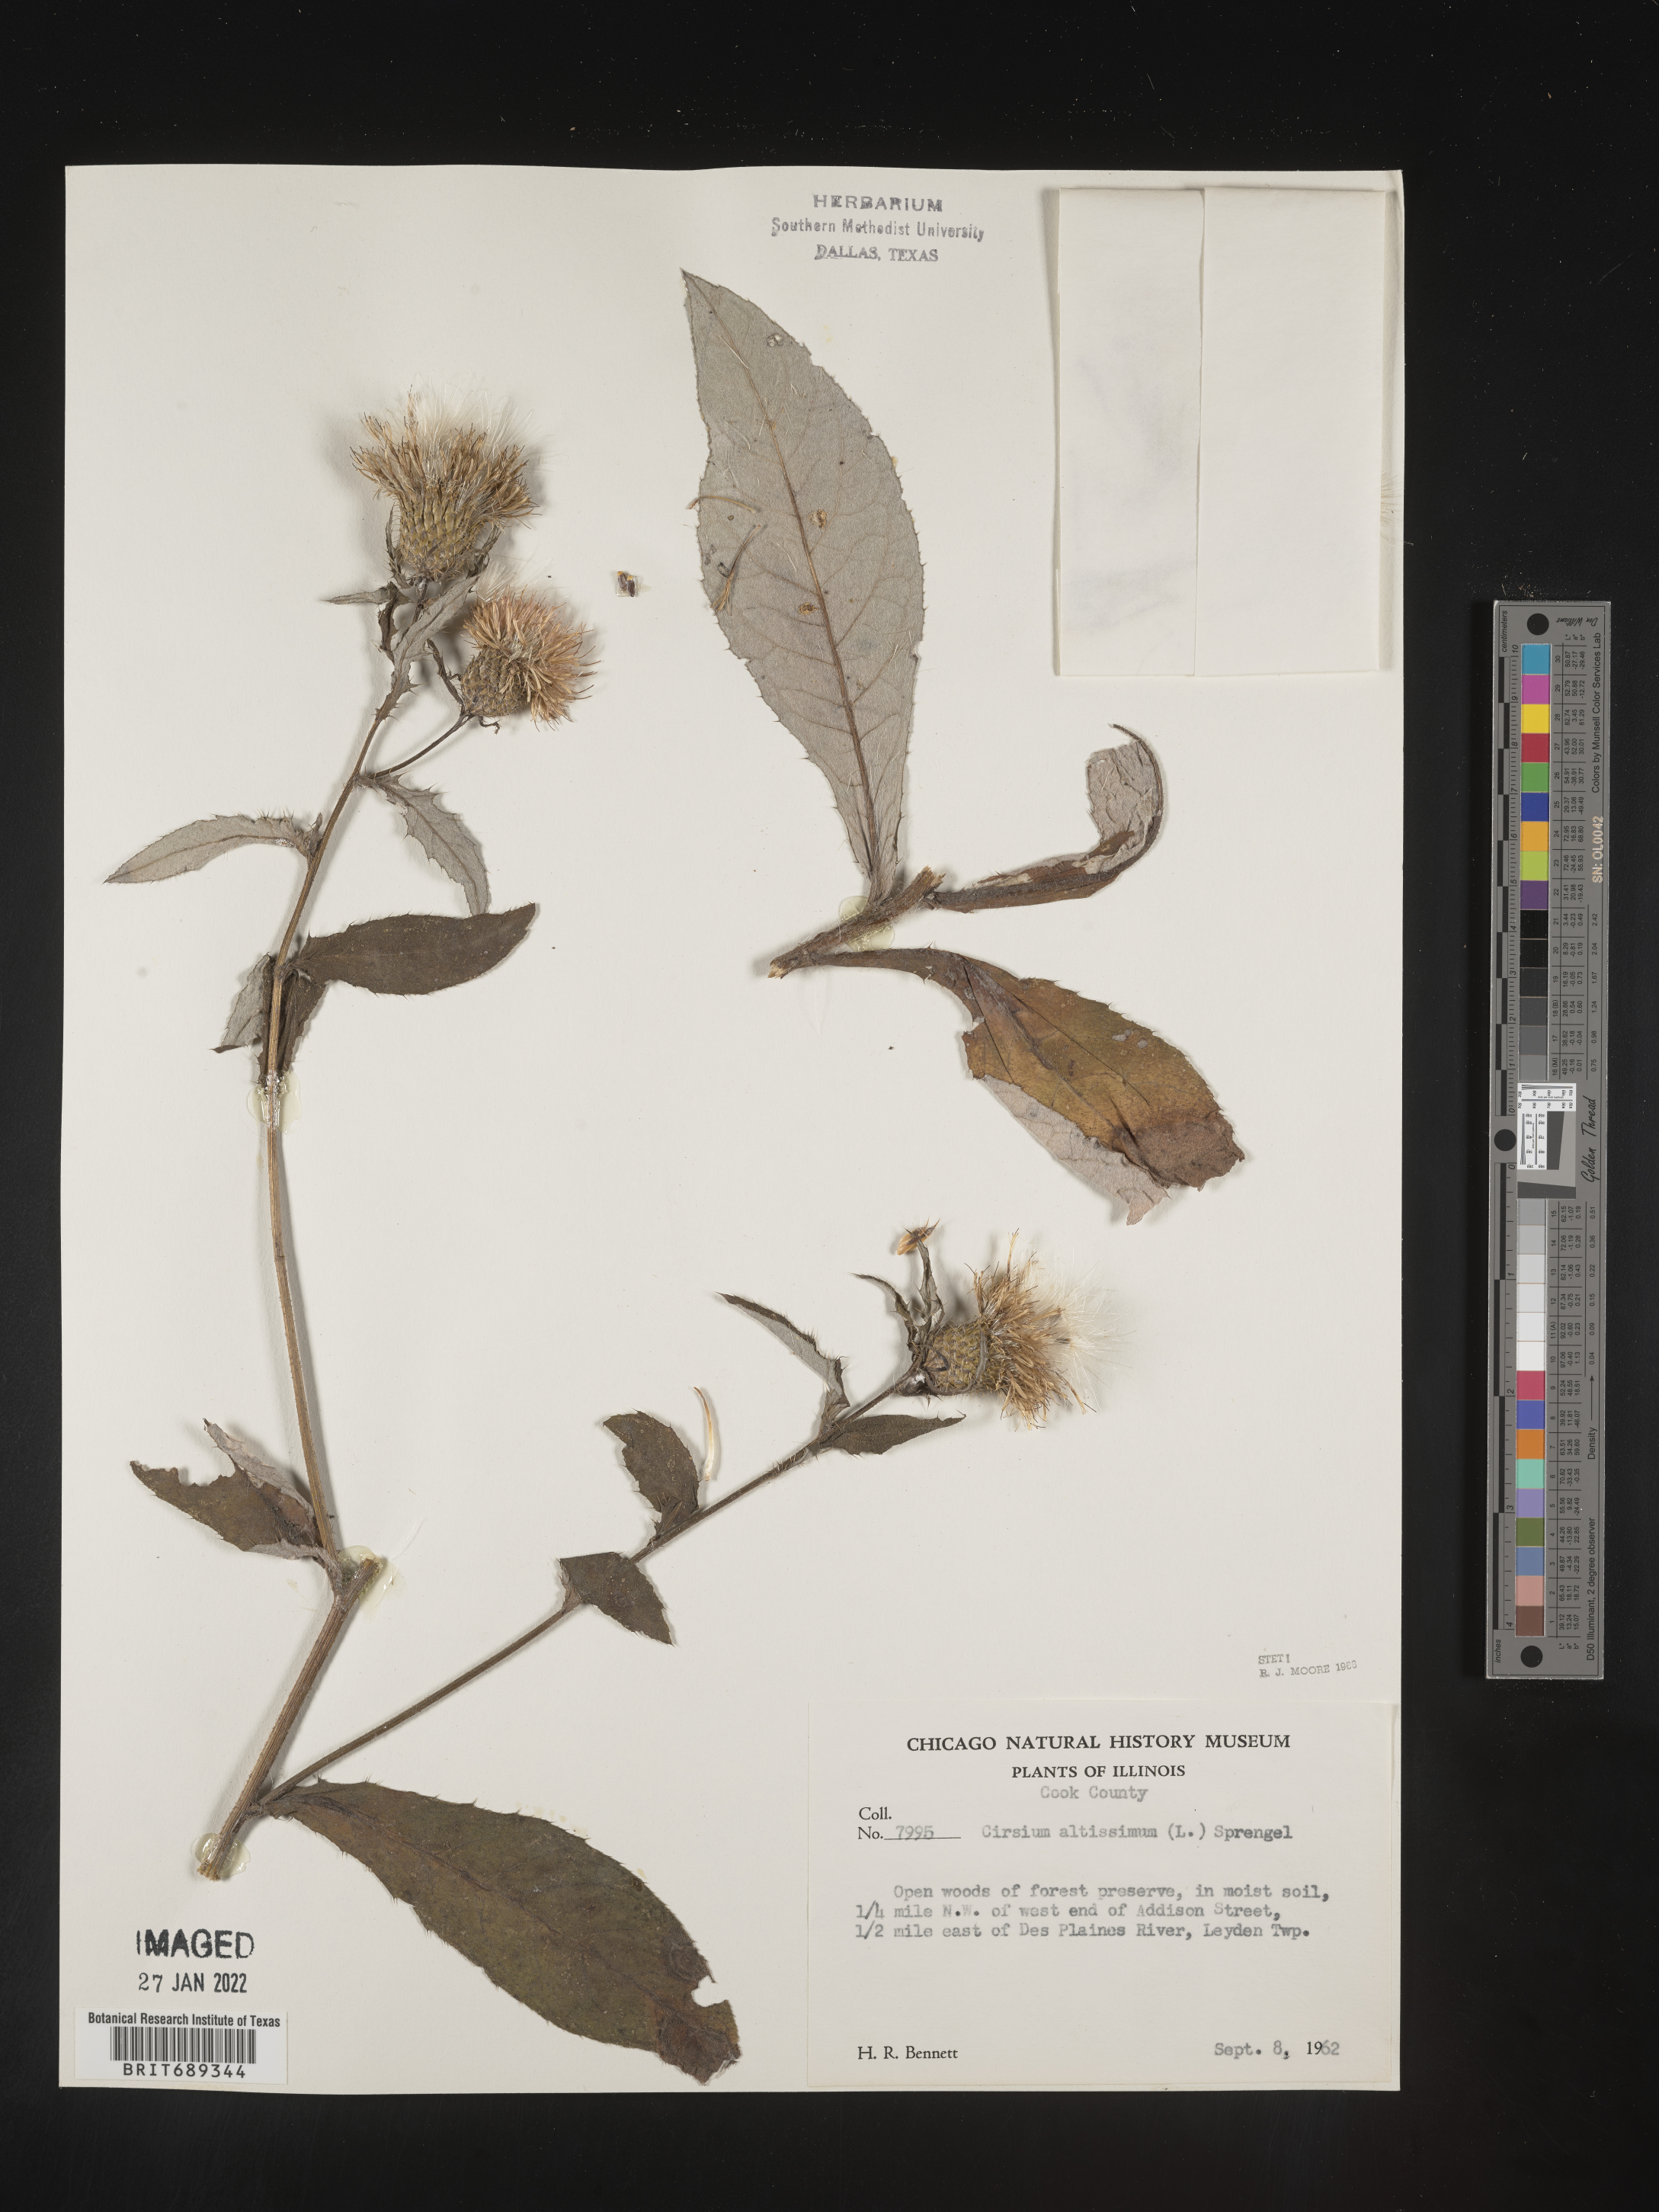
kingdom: Plantae
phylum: Tracheophyta
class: Magnoliopsida
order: Asterales
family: Asteraceae
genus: Cirsium
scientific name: Cirsium altissimum
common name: Roadside thistle
